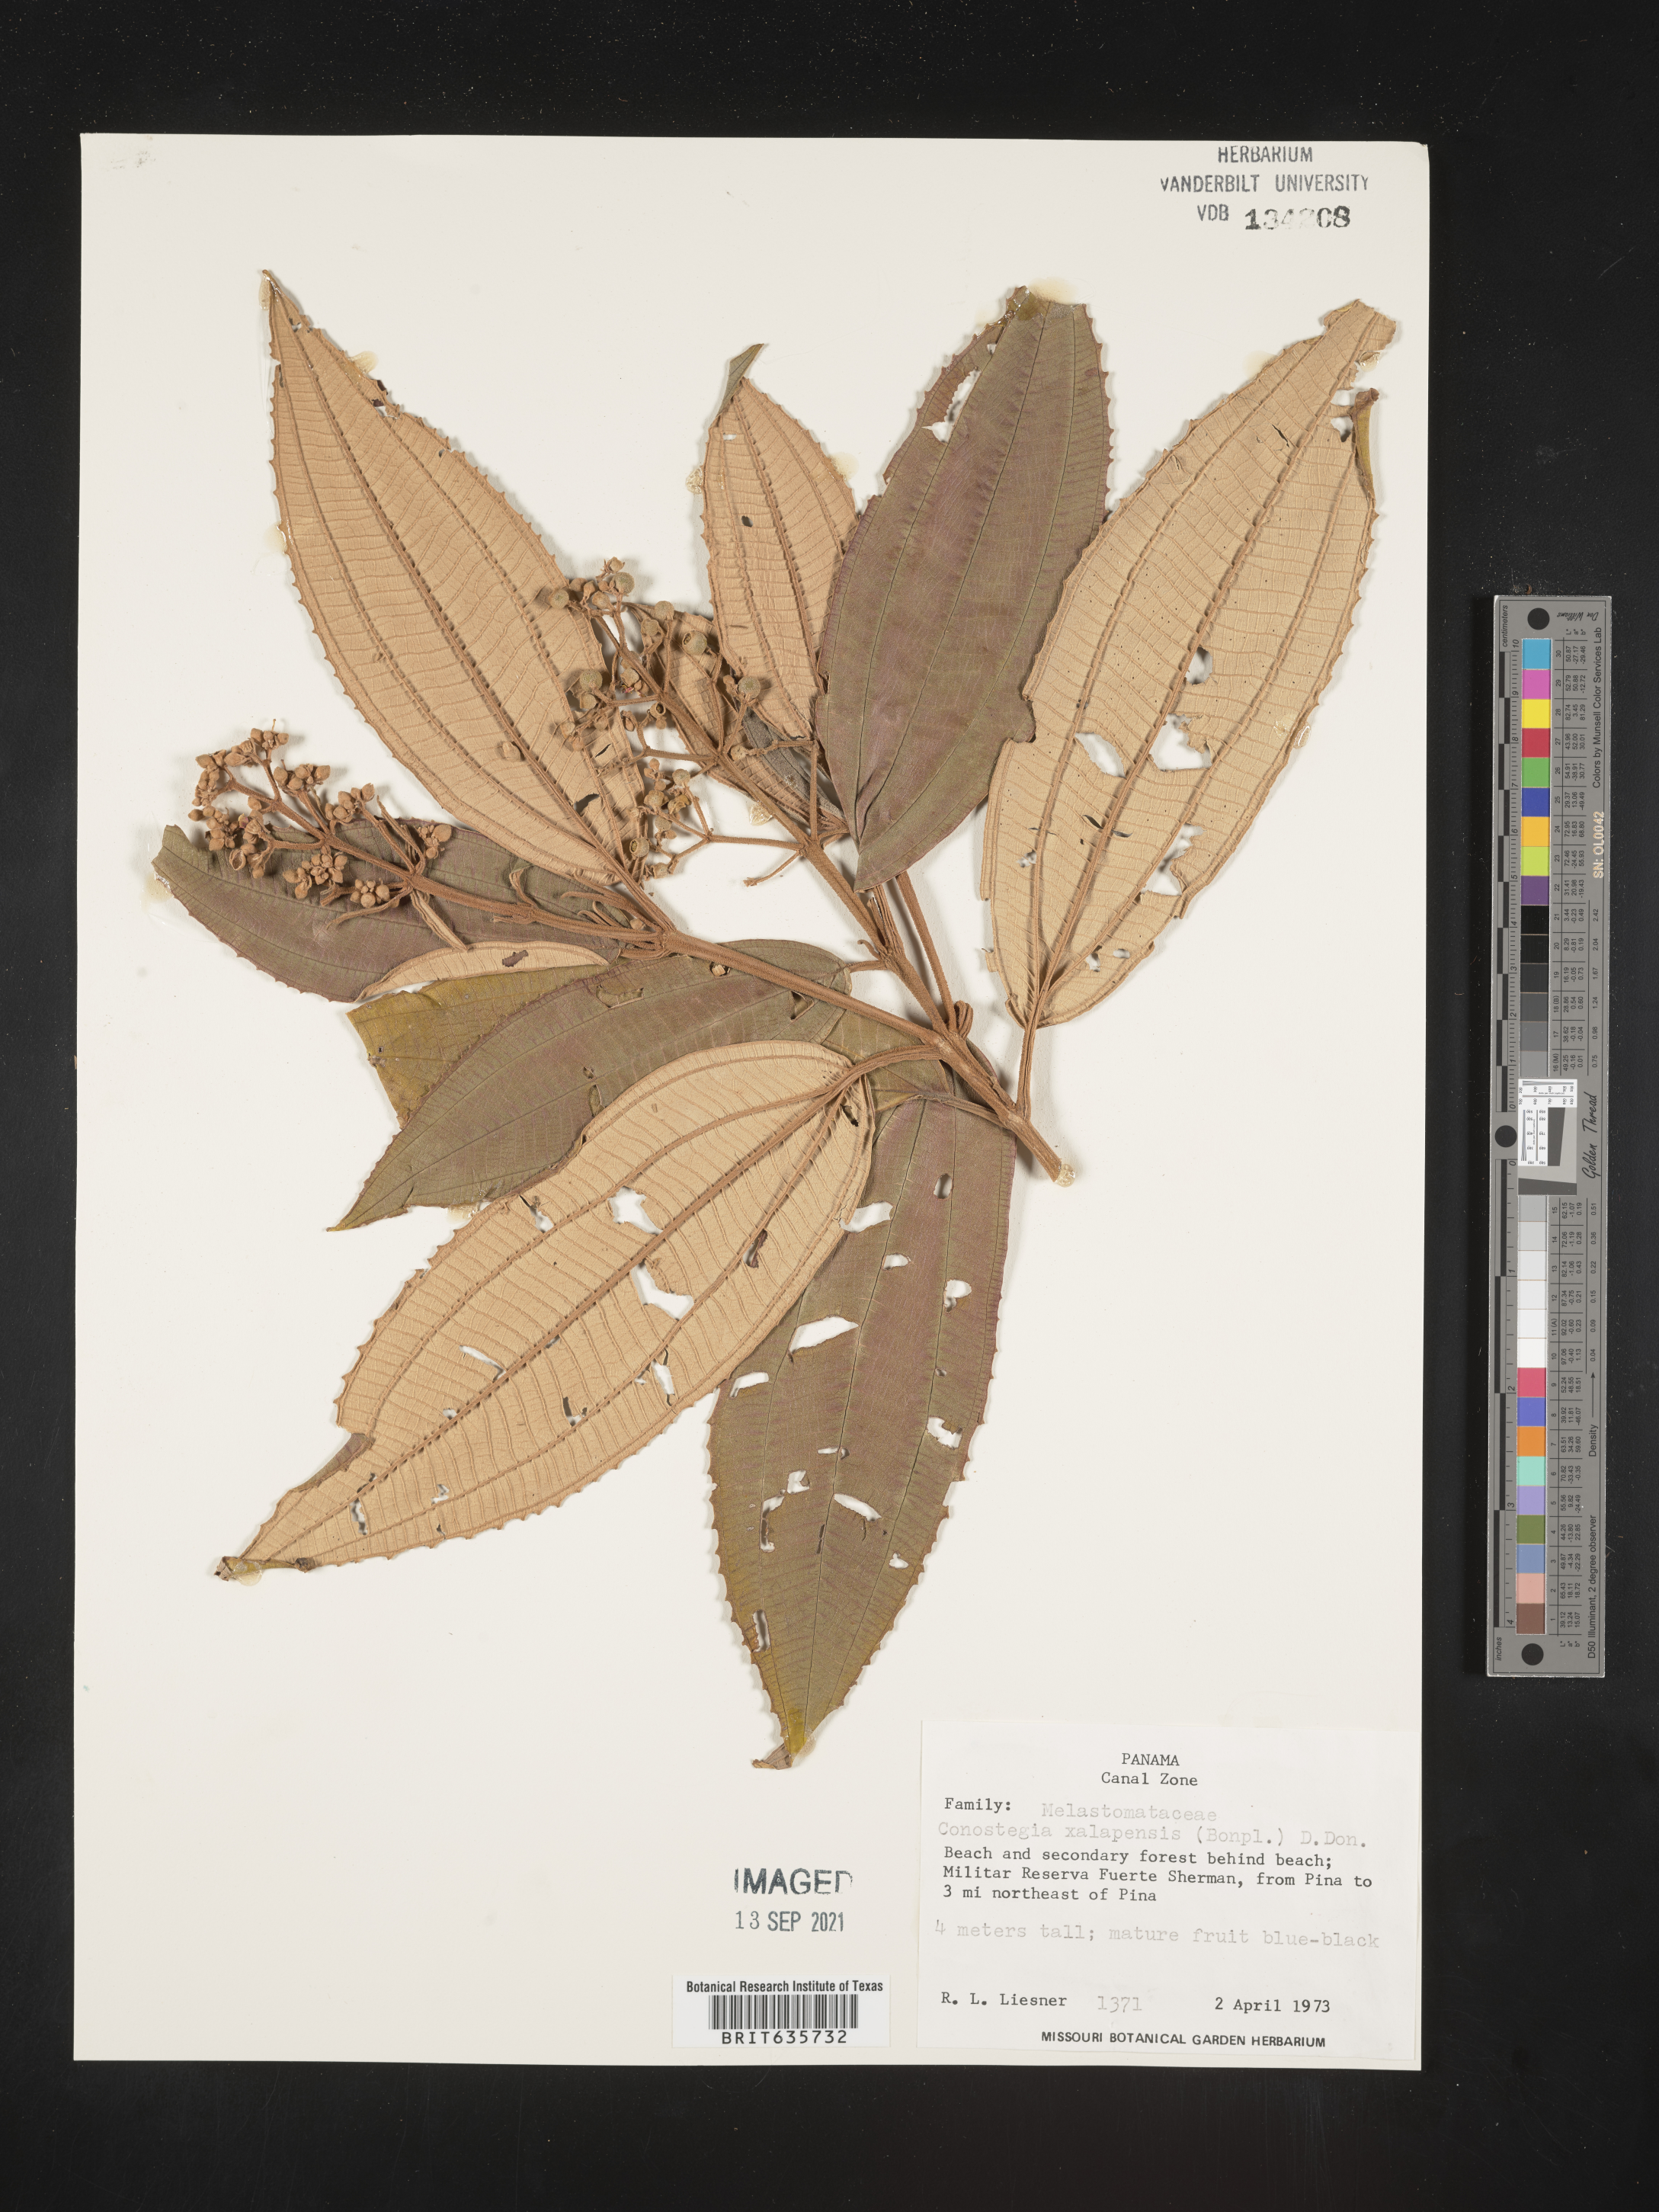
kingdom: Plantae
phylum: Tracheophyta
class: Magnoliopsida
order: Myrtales
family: Melastomataceae
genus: Miconia
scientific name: Miconia
